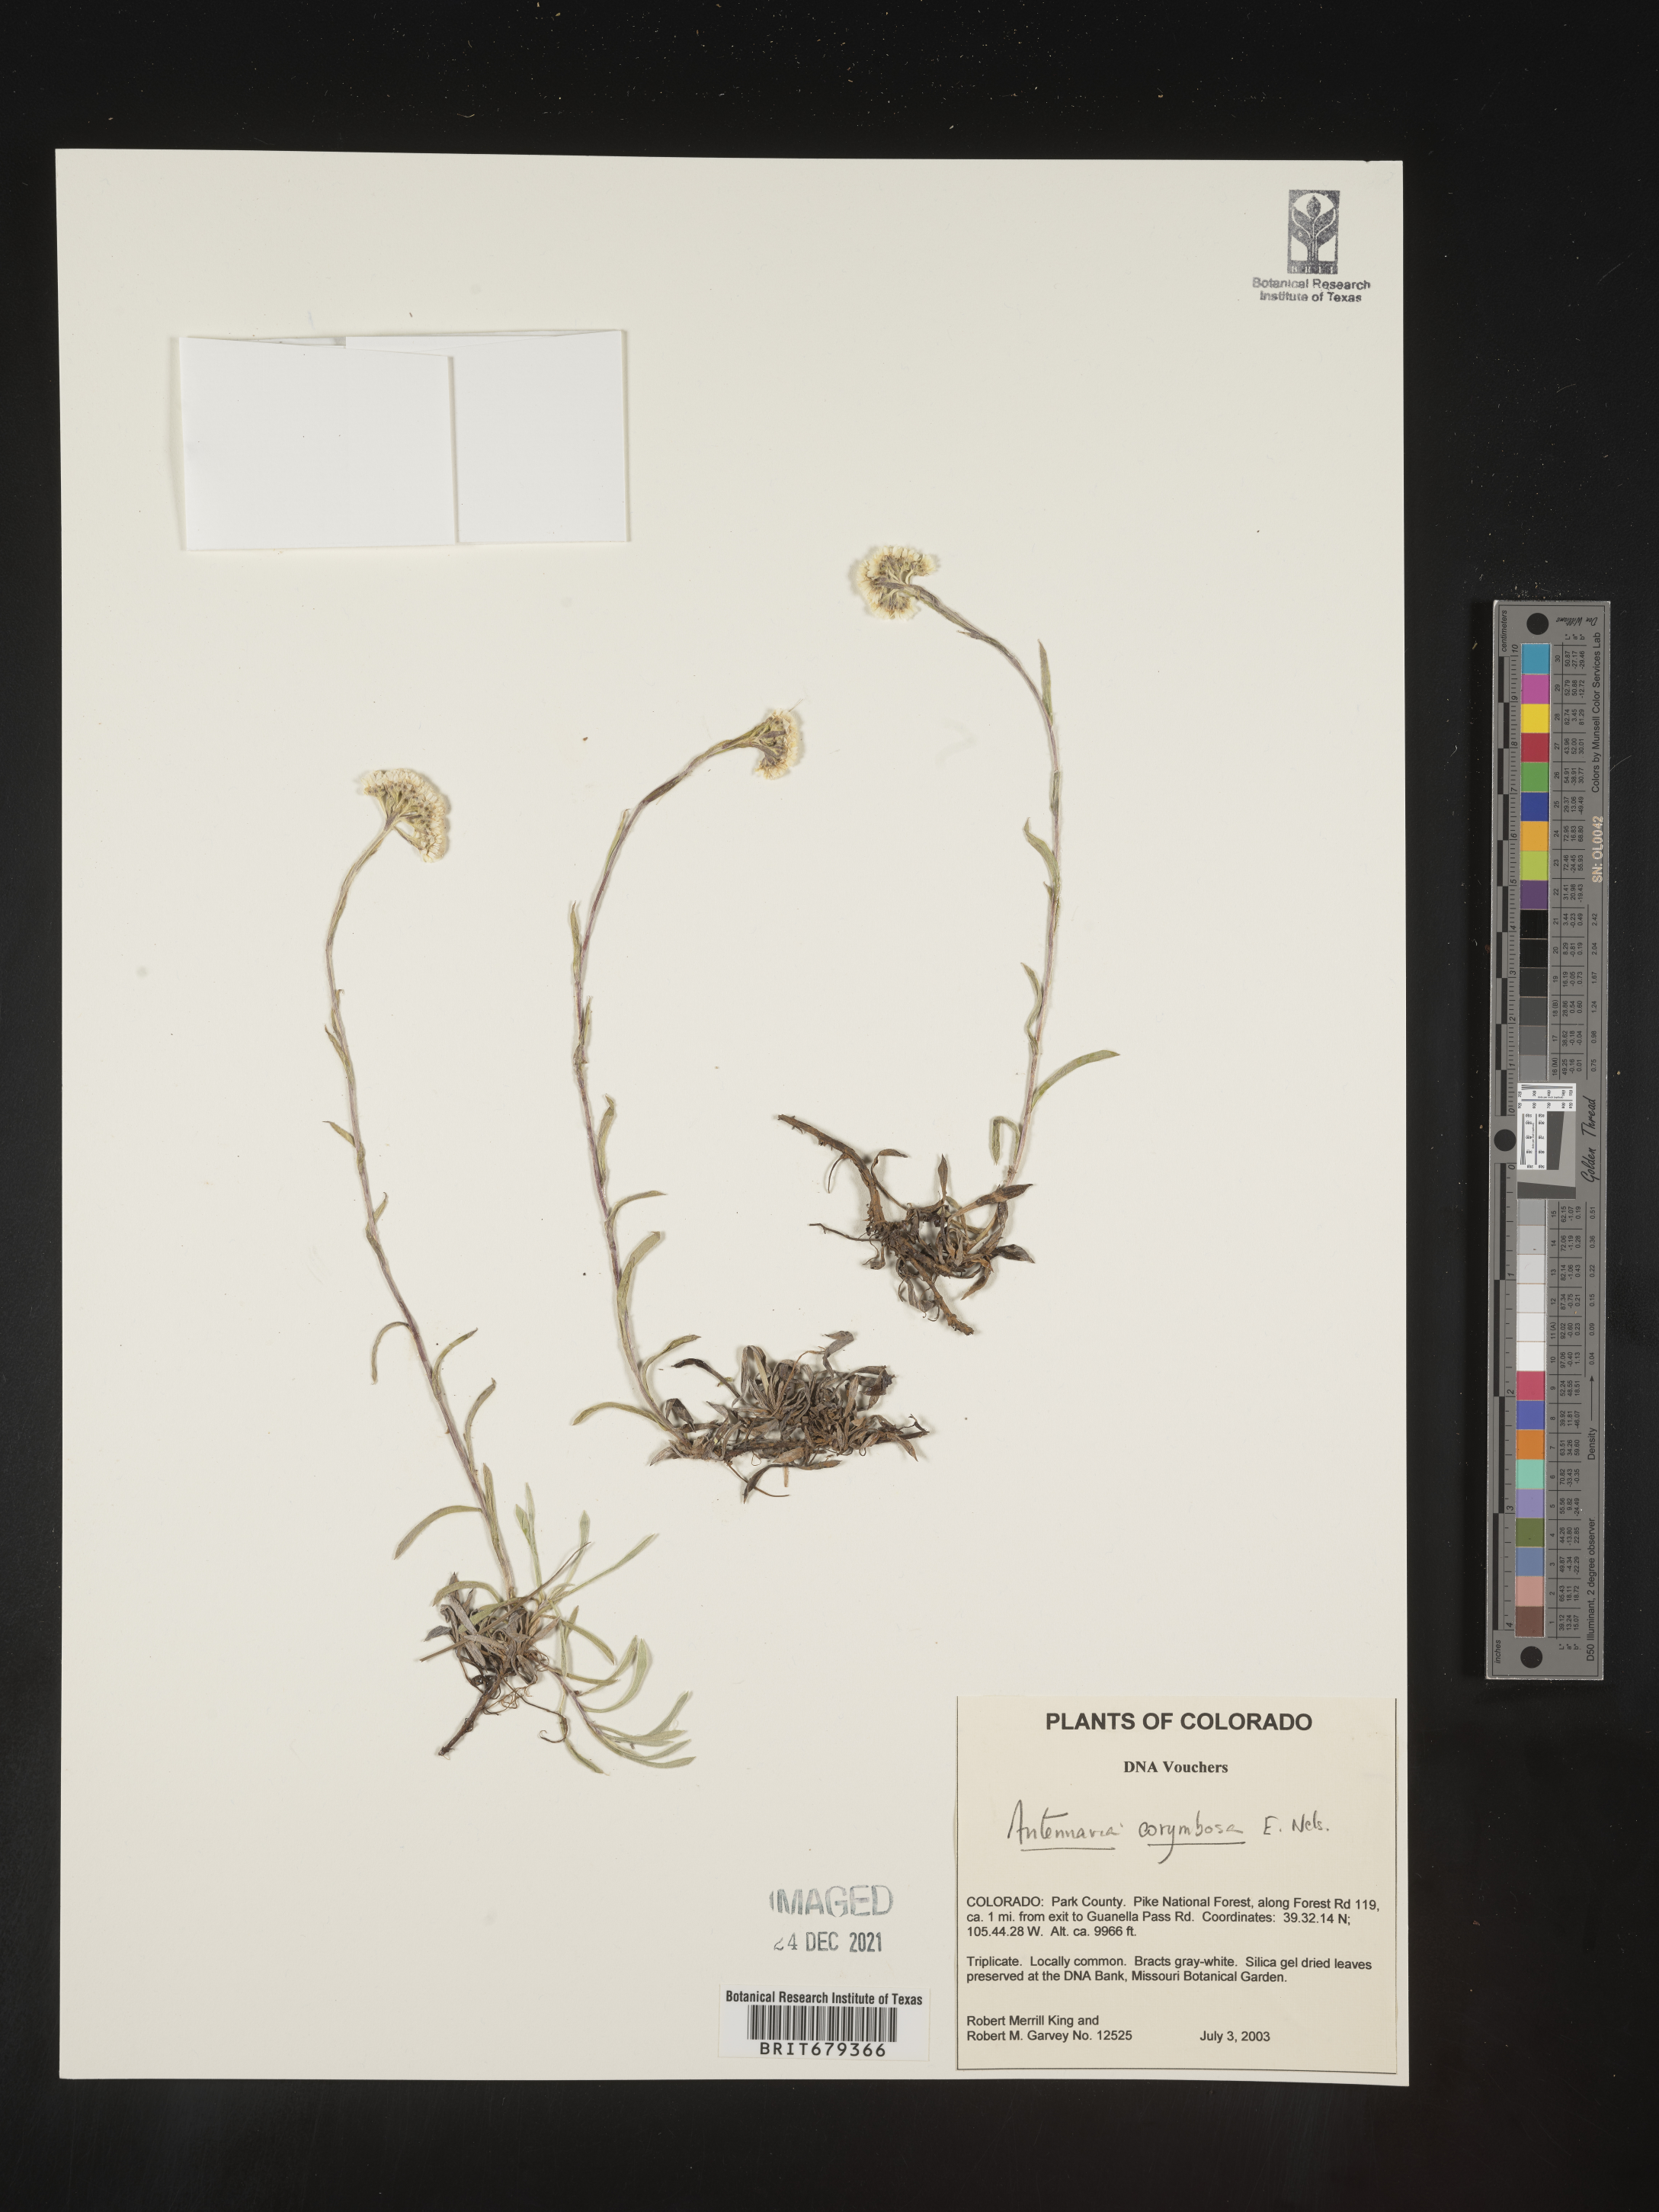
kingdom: Plantae
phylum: Tracheophyta
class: Magnoliopsida
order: Asterales
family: Asteraceae
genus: Antennaria
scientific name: Antennaria corymbosa
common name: Meadow pussytoes
